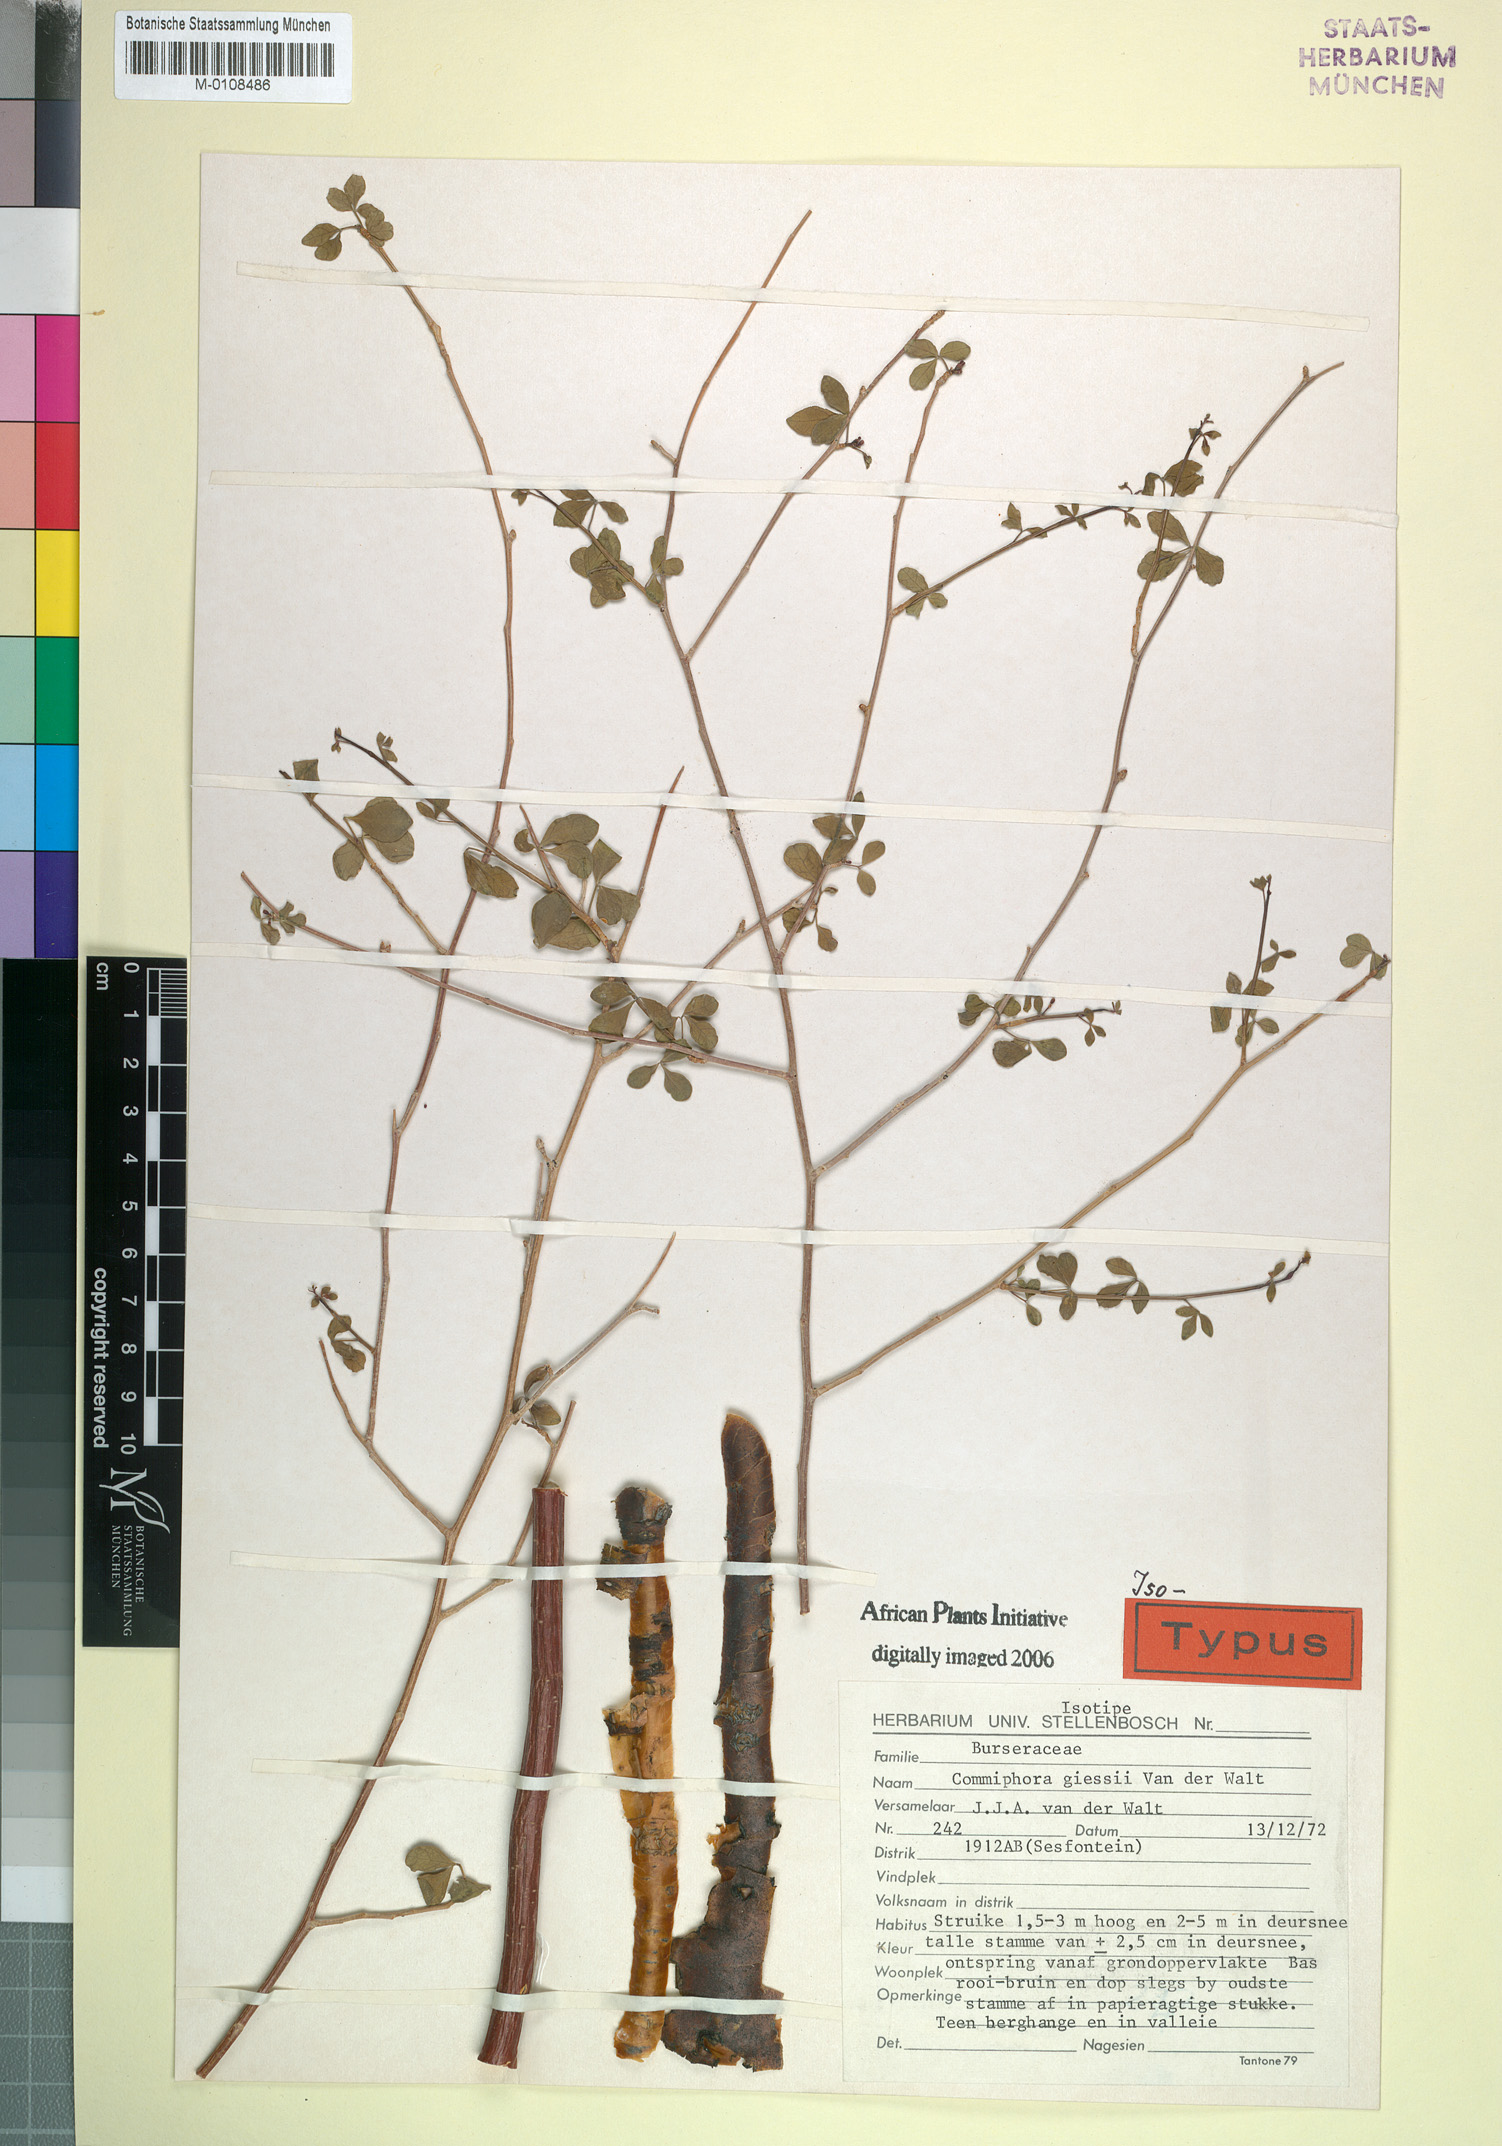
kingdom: Plantae
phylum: Tracheophyta
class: Magnoliopsida
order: Sapindales
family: Burseraceae
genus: Commiphora
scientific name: Commiphora giessii
